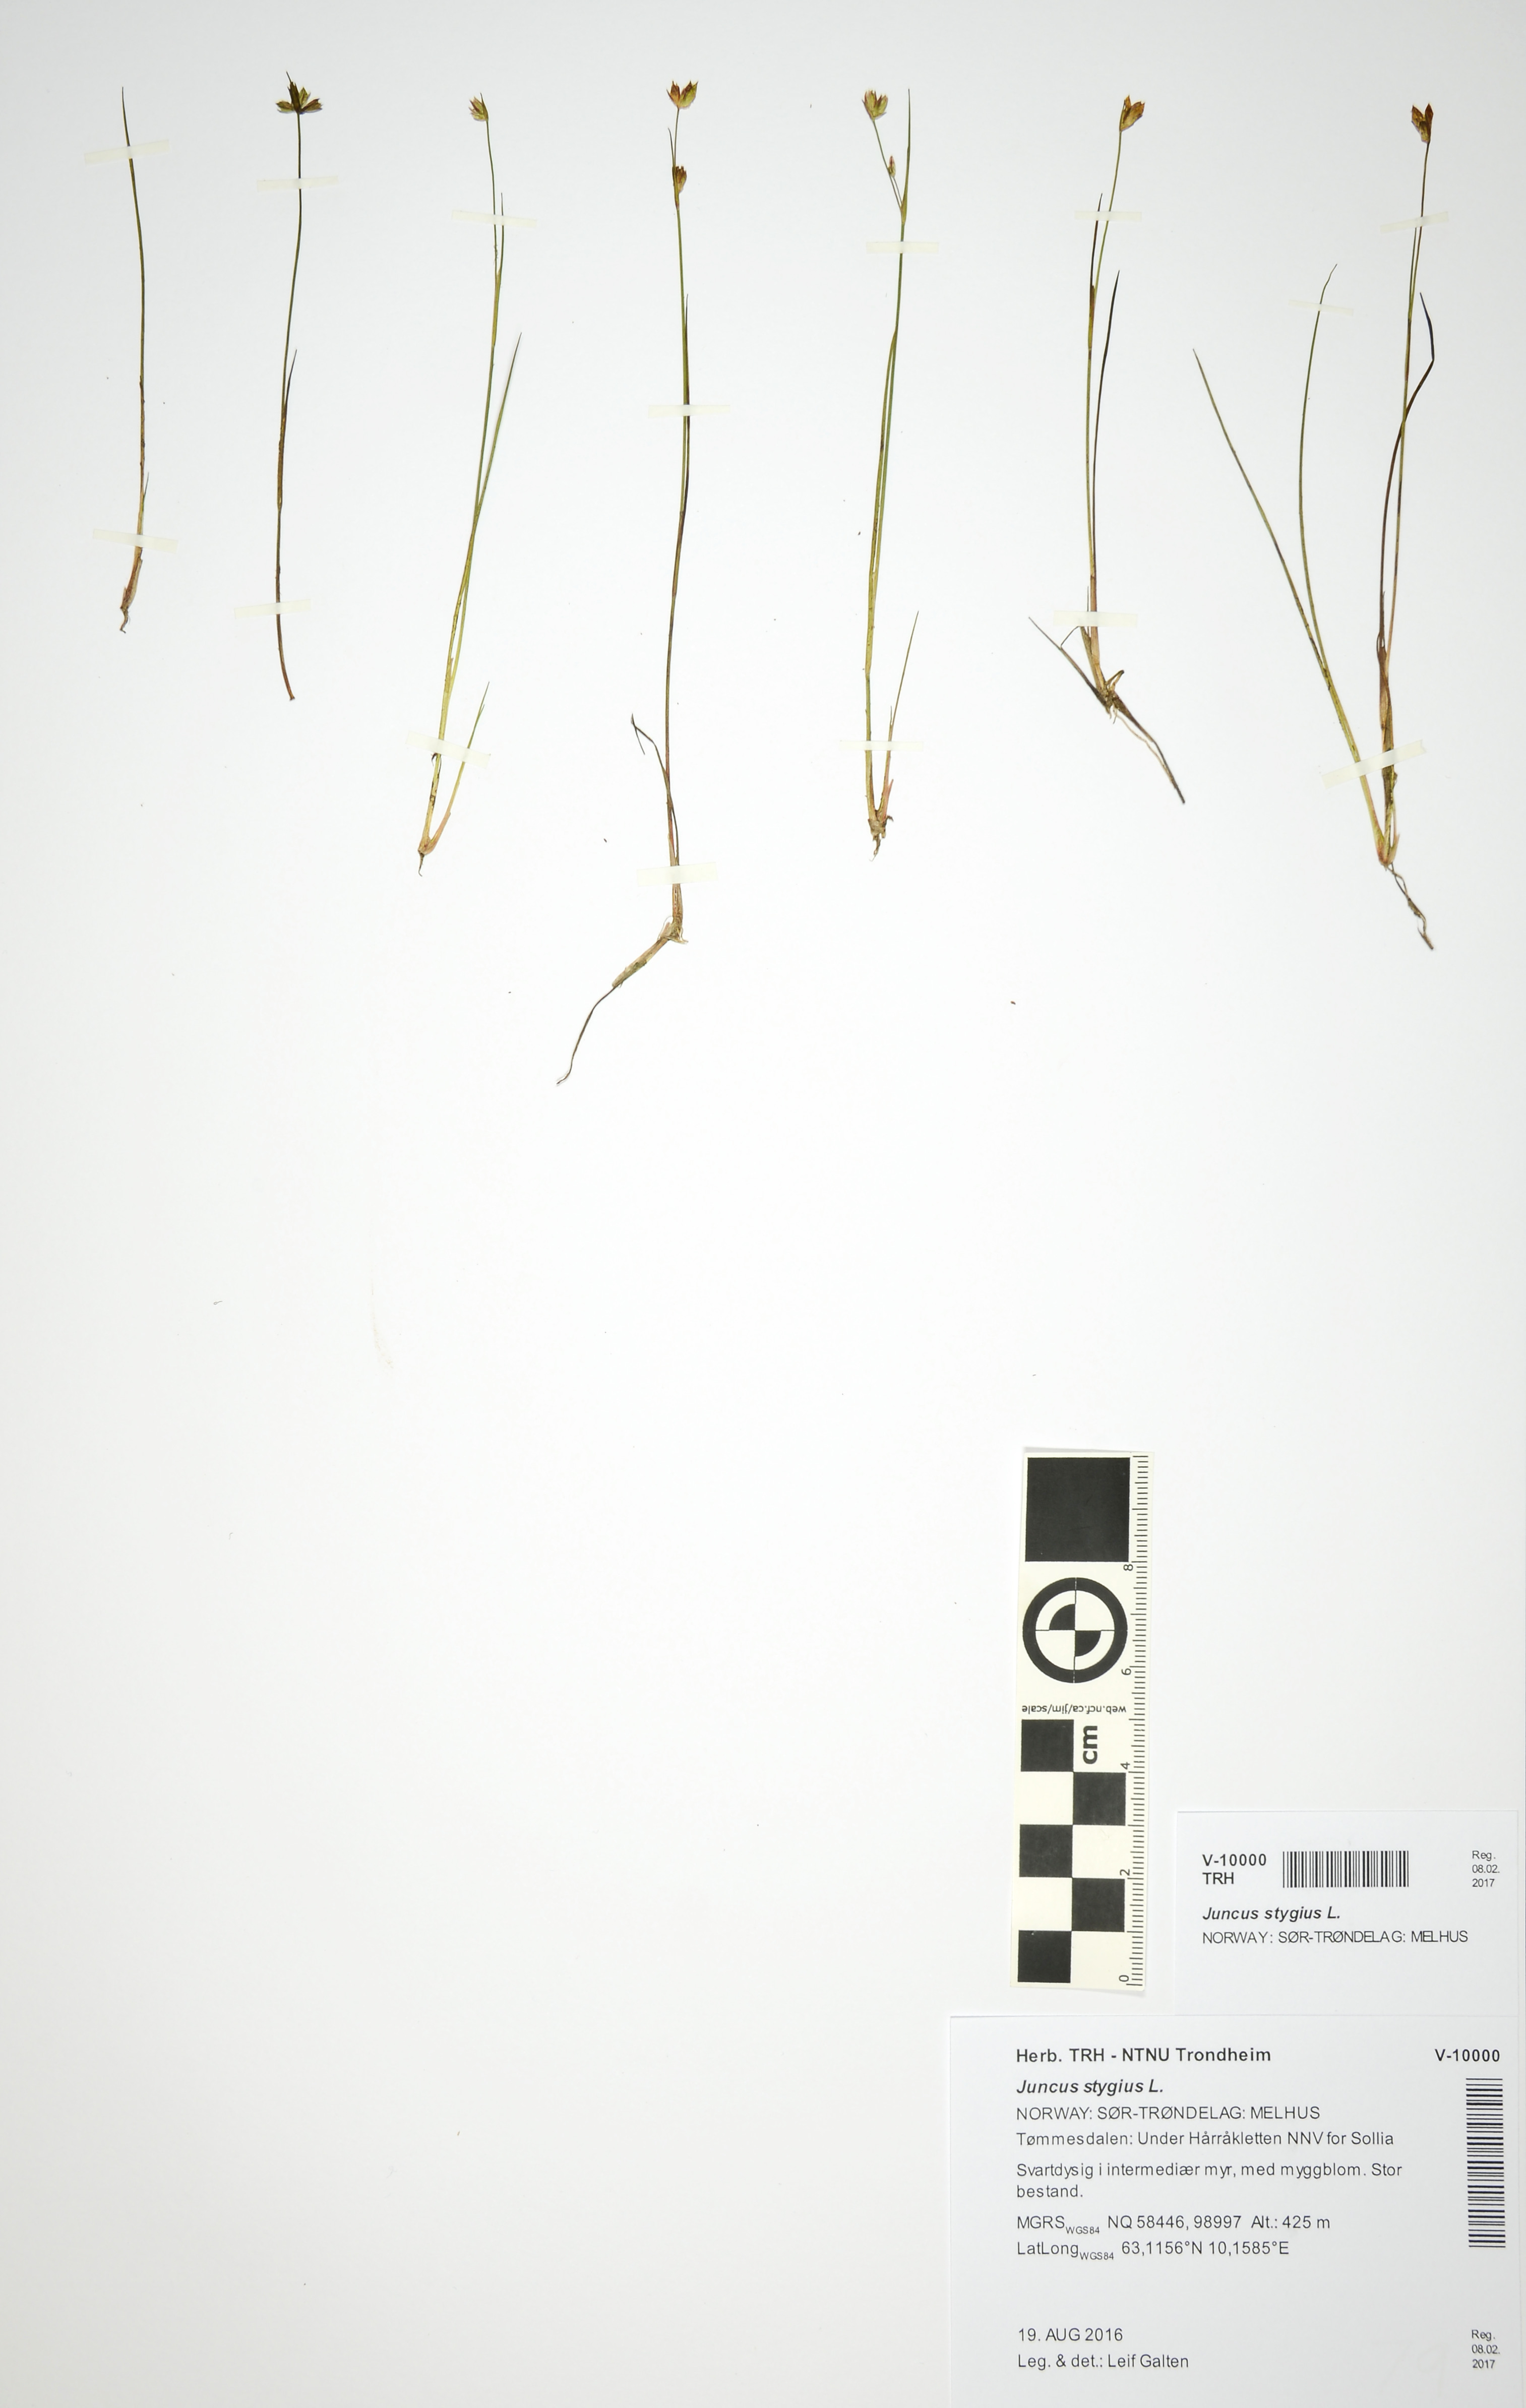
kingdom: Plantae
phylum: Tracheophyta
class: Liliopsida
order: Poales
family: Juncaceae
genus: Juncus
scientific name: Juncus stygius
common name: Bog rush
